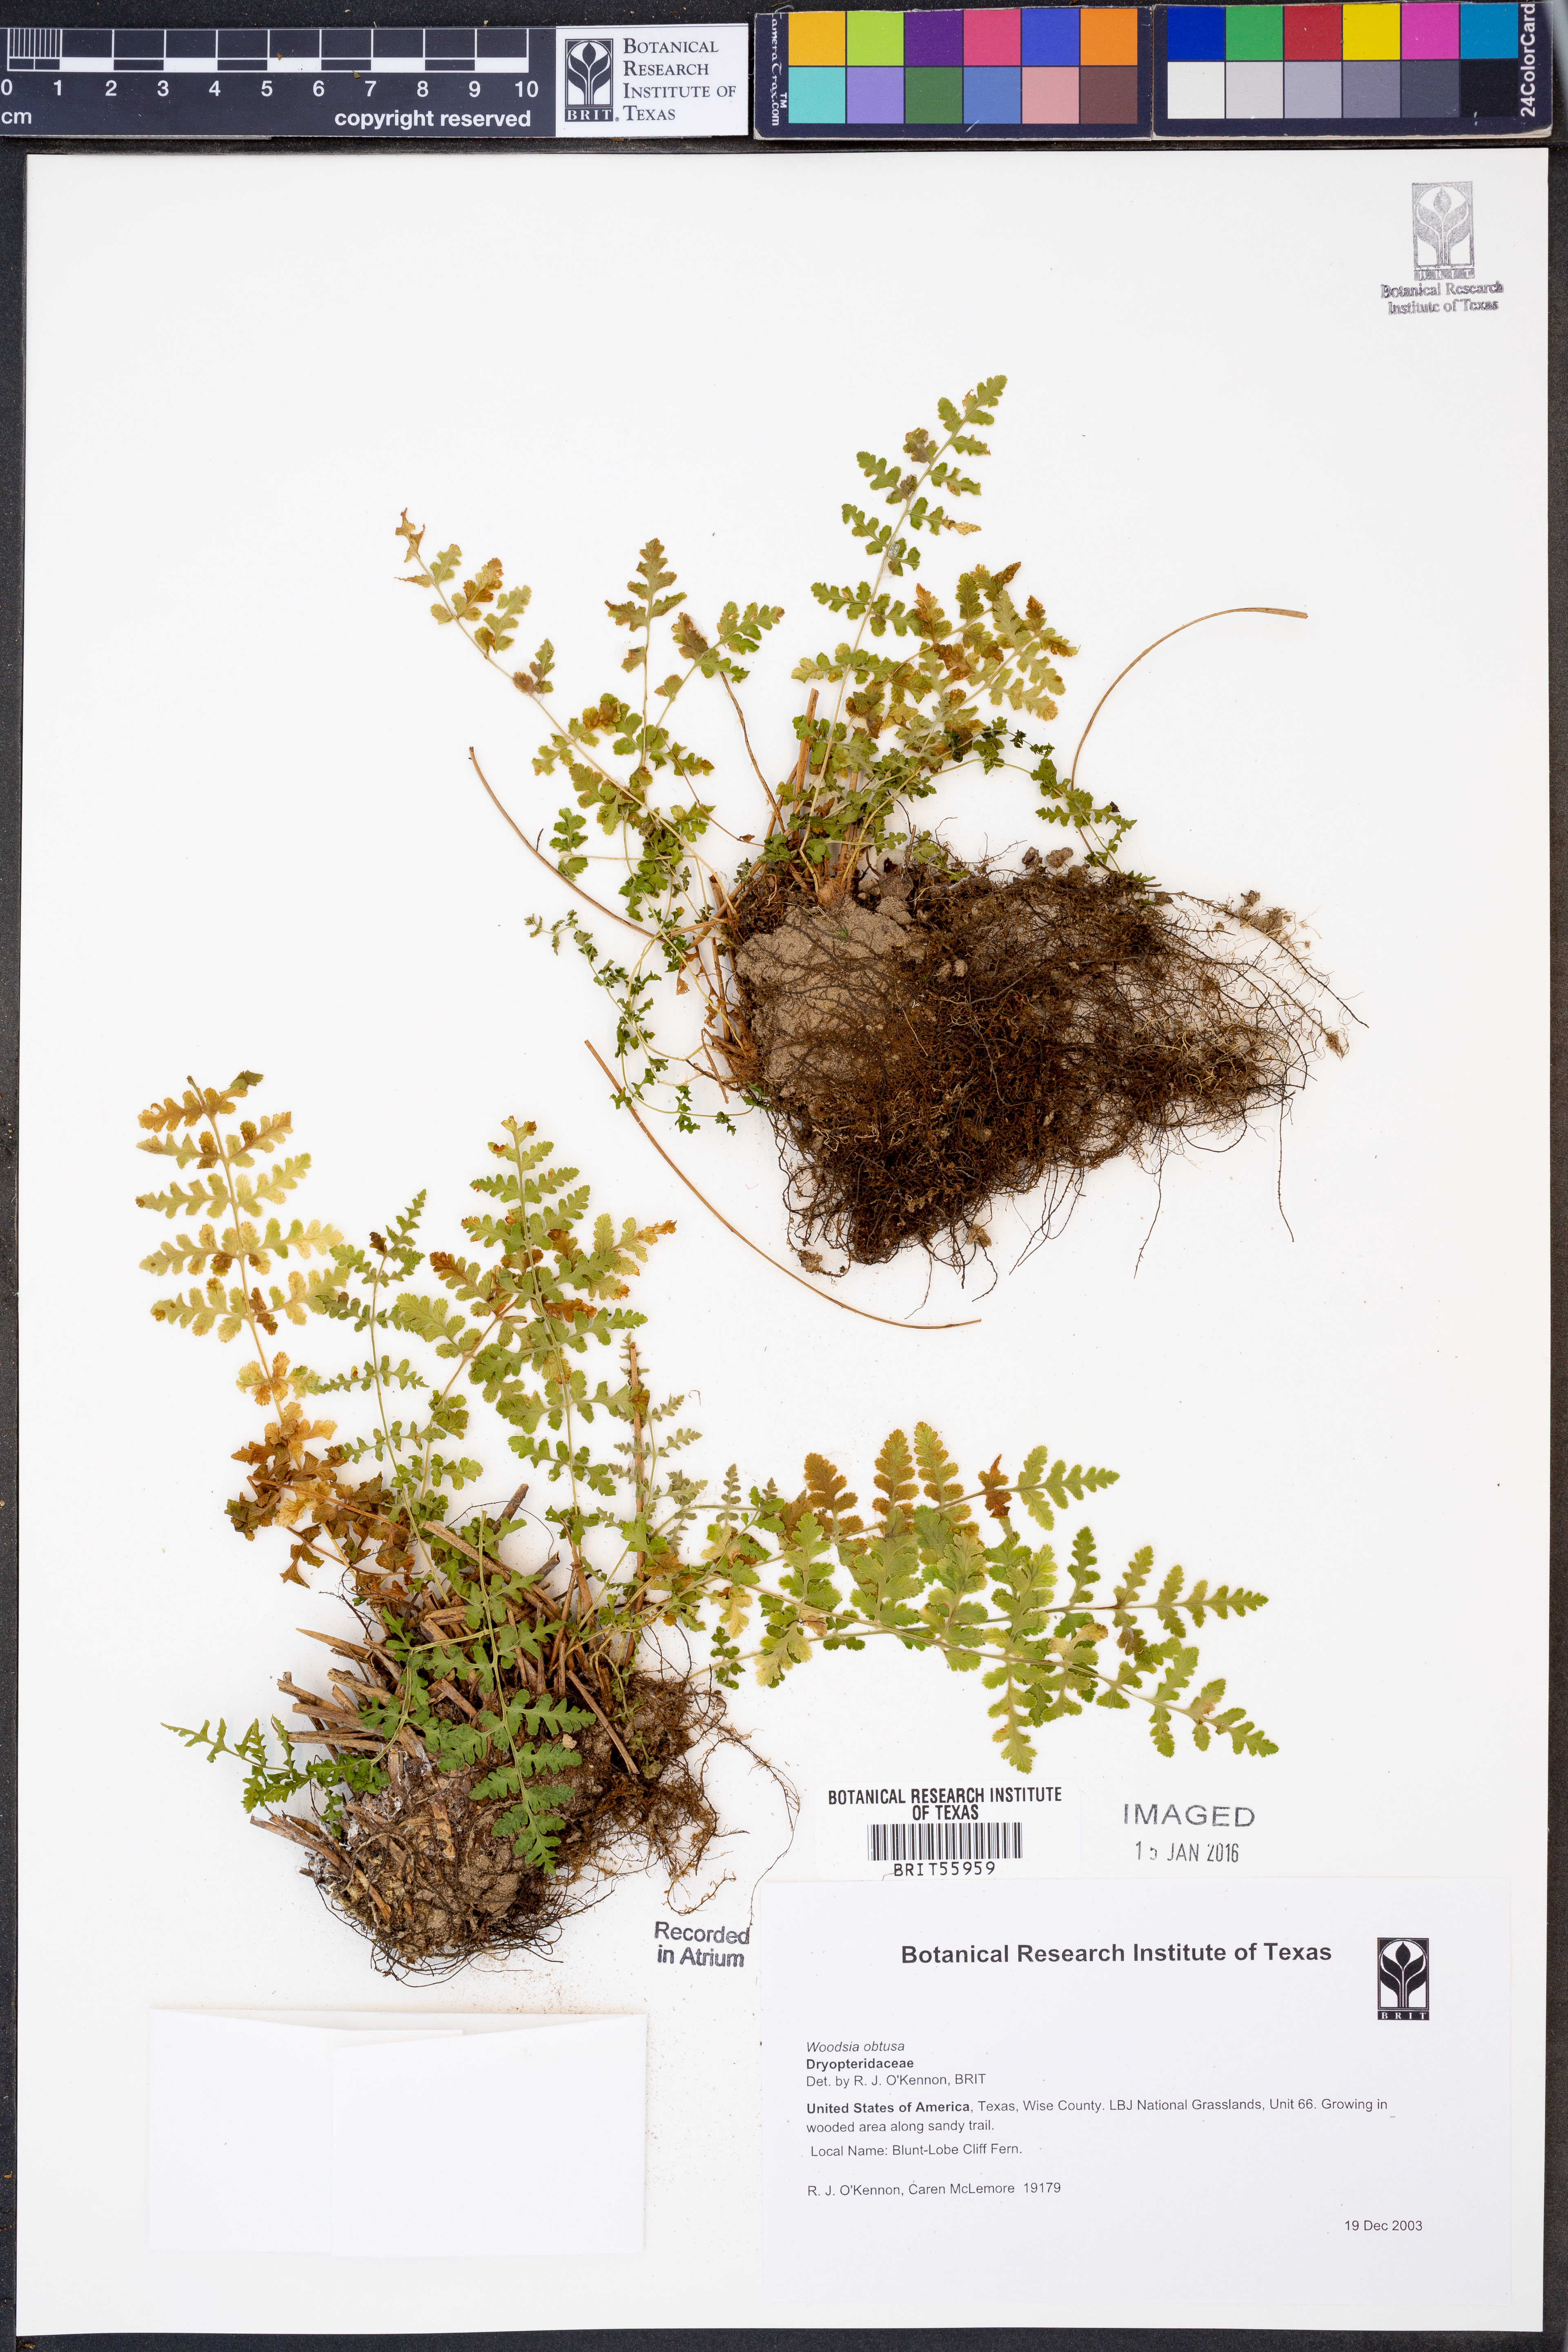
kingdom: Plantae
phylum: Tracheophyta
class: Polypodiopsida
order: Polypodiales
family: Woodsiaceae
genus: Physematium
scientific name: Physematium obtusum
